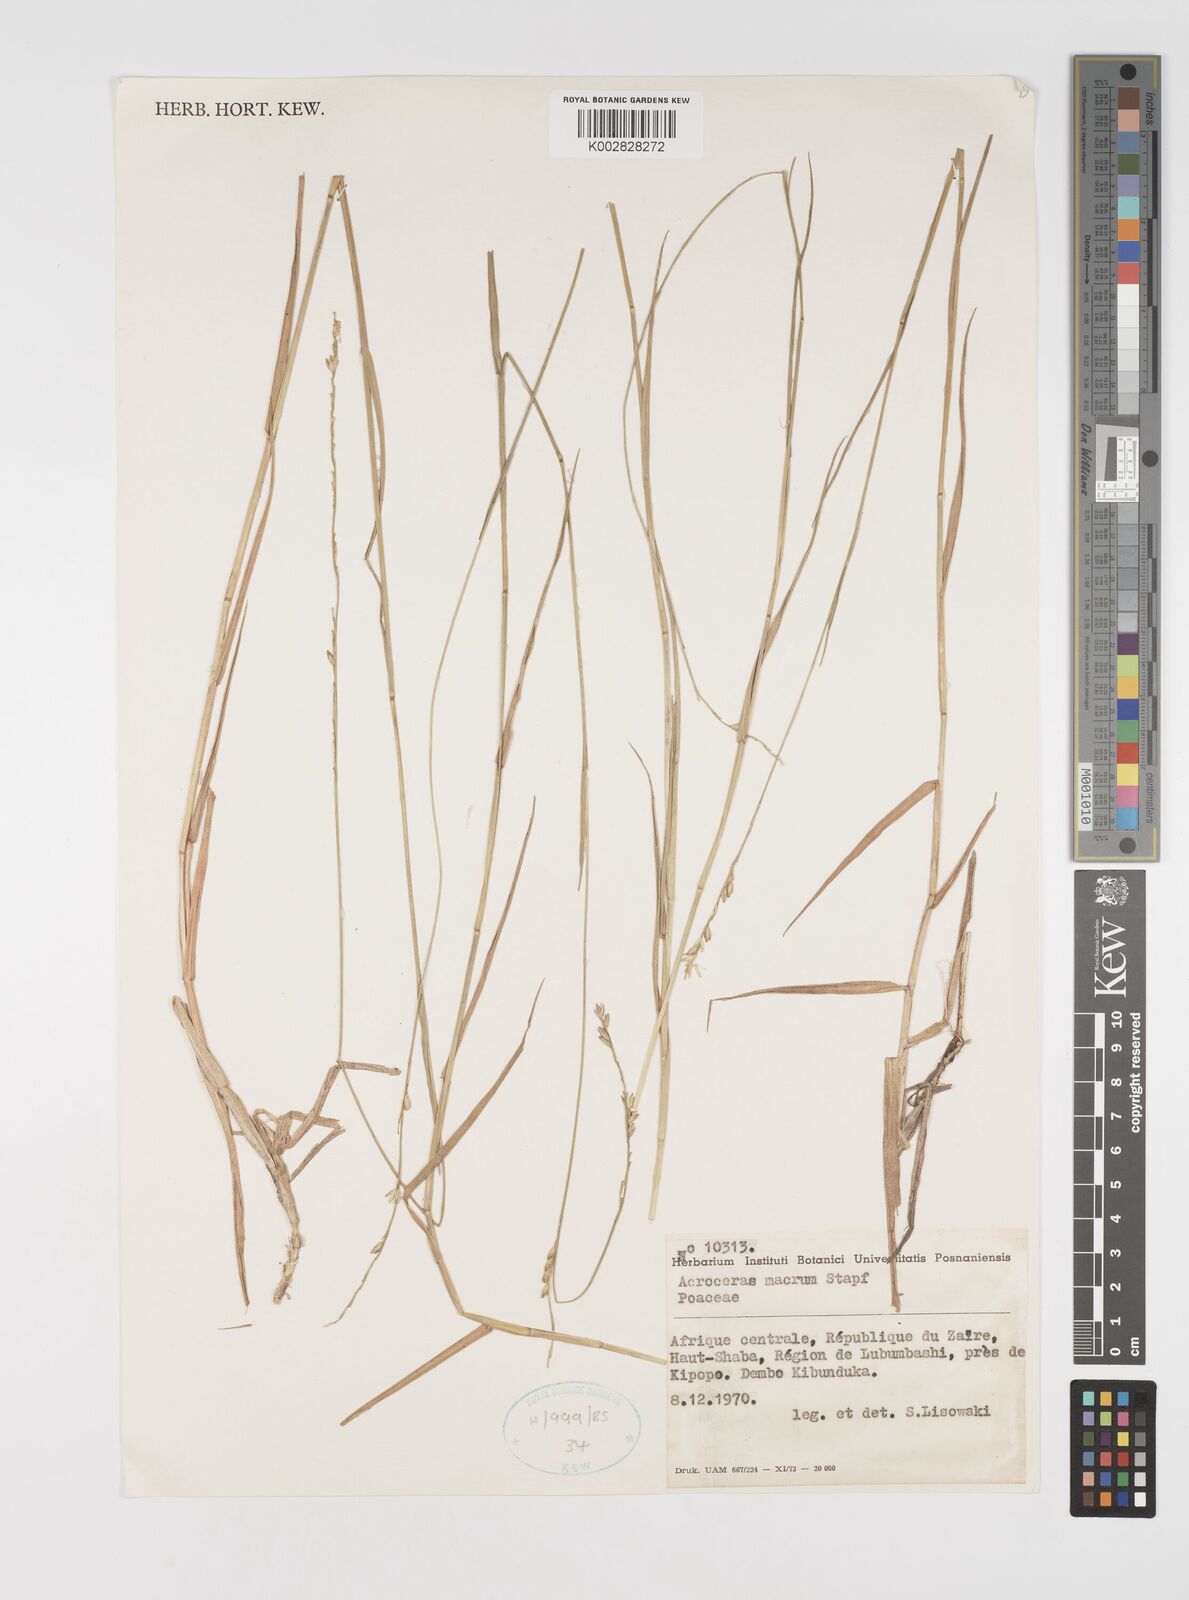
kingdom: Plantae
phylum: Tracheophyta
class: Liliopsida
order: Poales
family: Poaceae
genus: Acroceras
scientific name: Acroceras macrum
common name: Nyl grass
